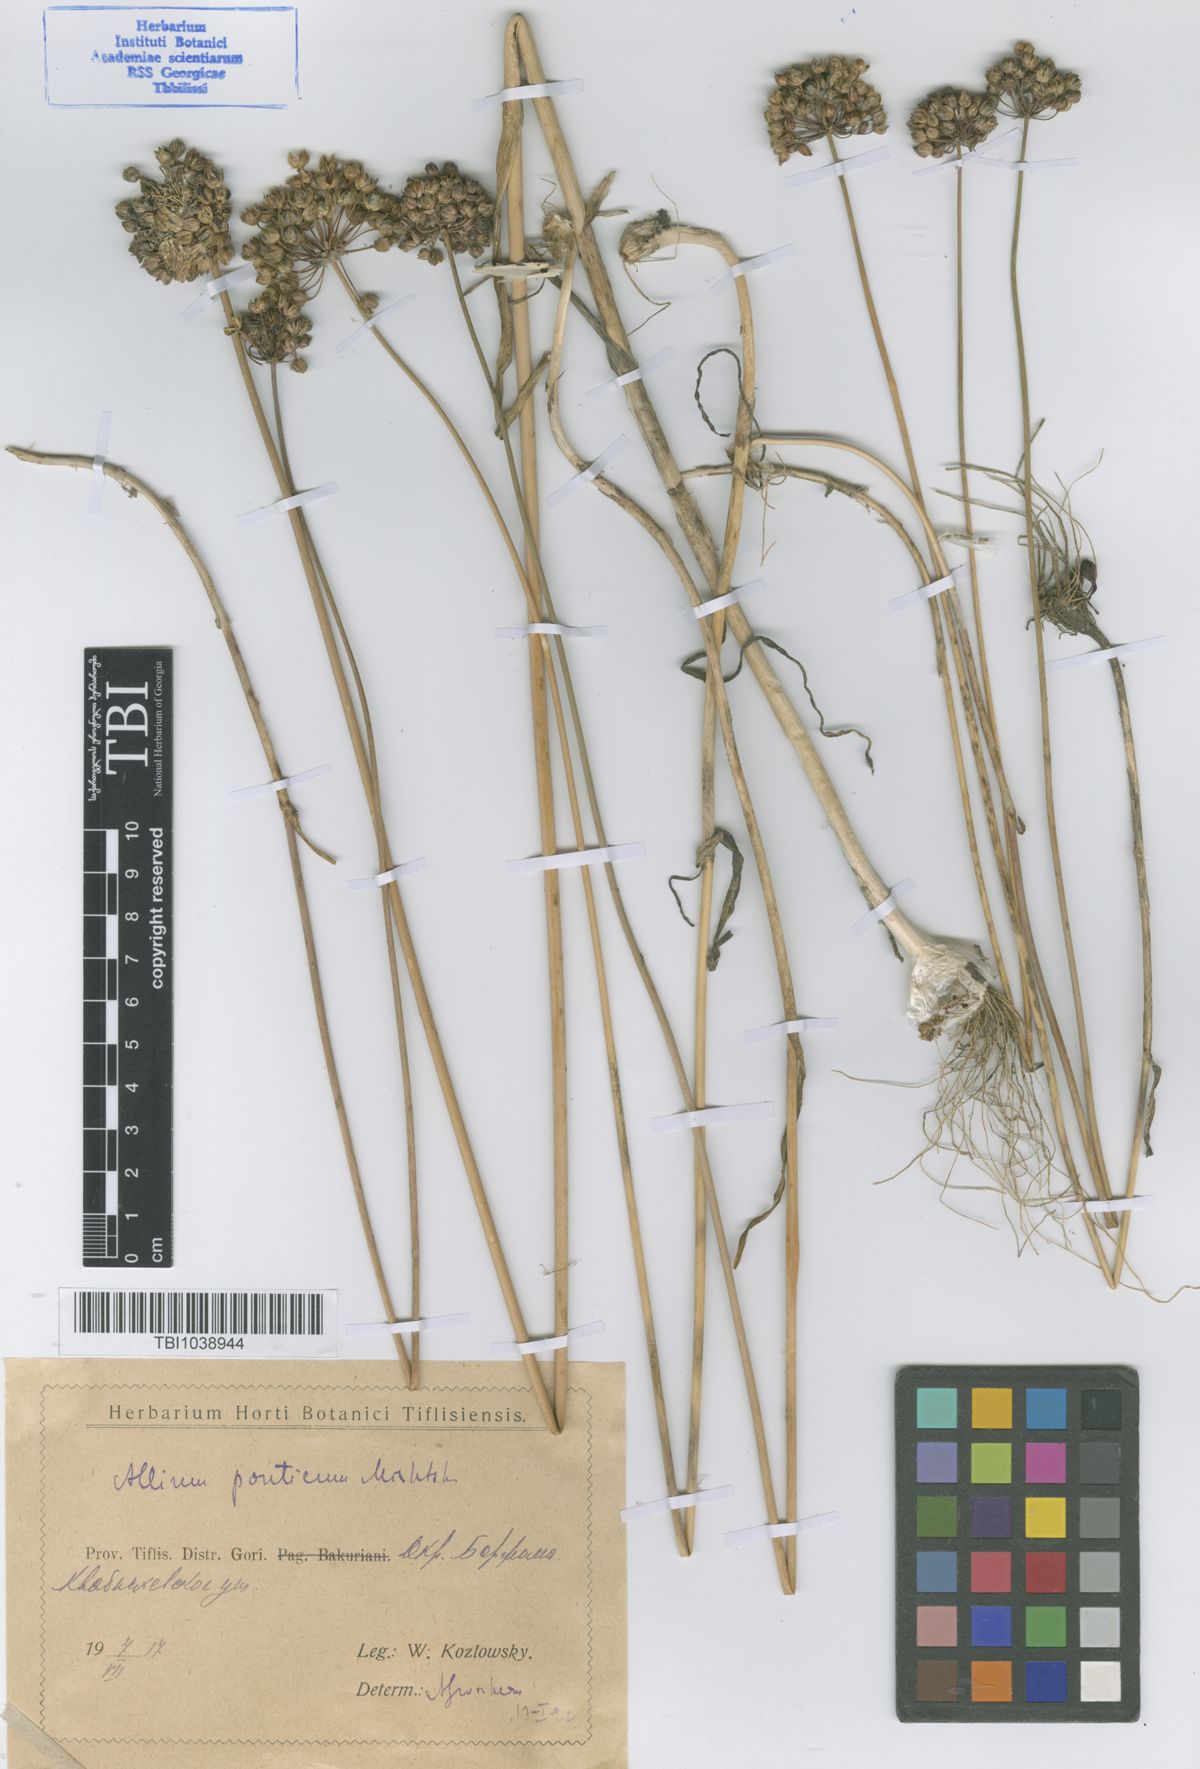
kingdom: Plantae
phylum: Tracheophyta
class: Liliopsida
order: Asparagales
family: Amaryllidaceae
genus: Allium
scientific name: Allium ponticum
